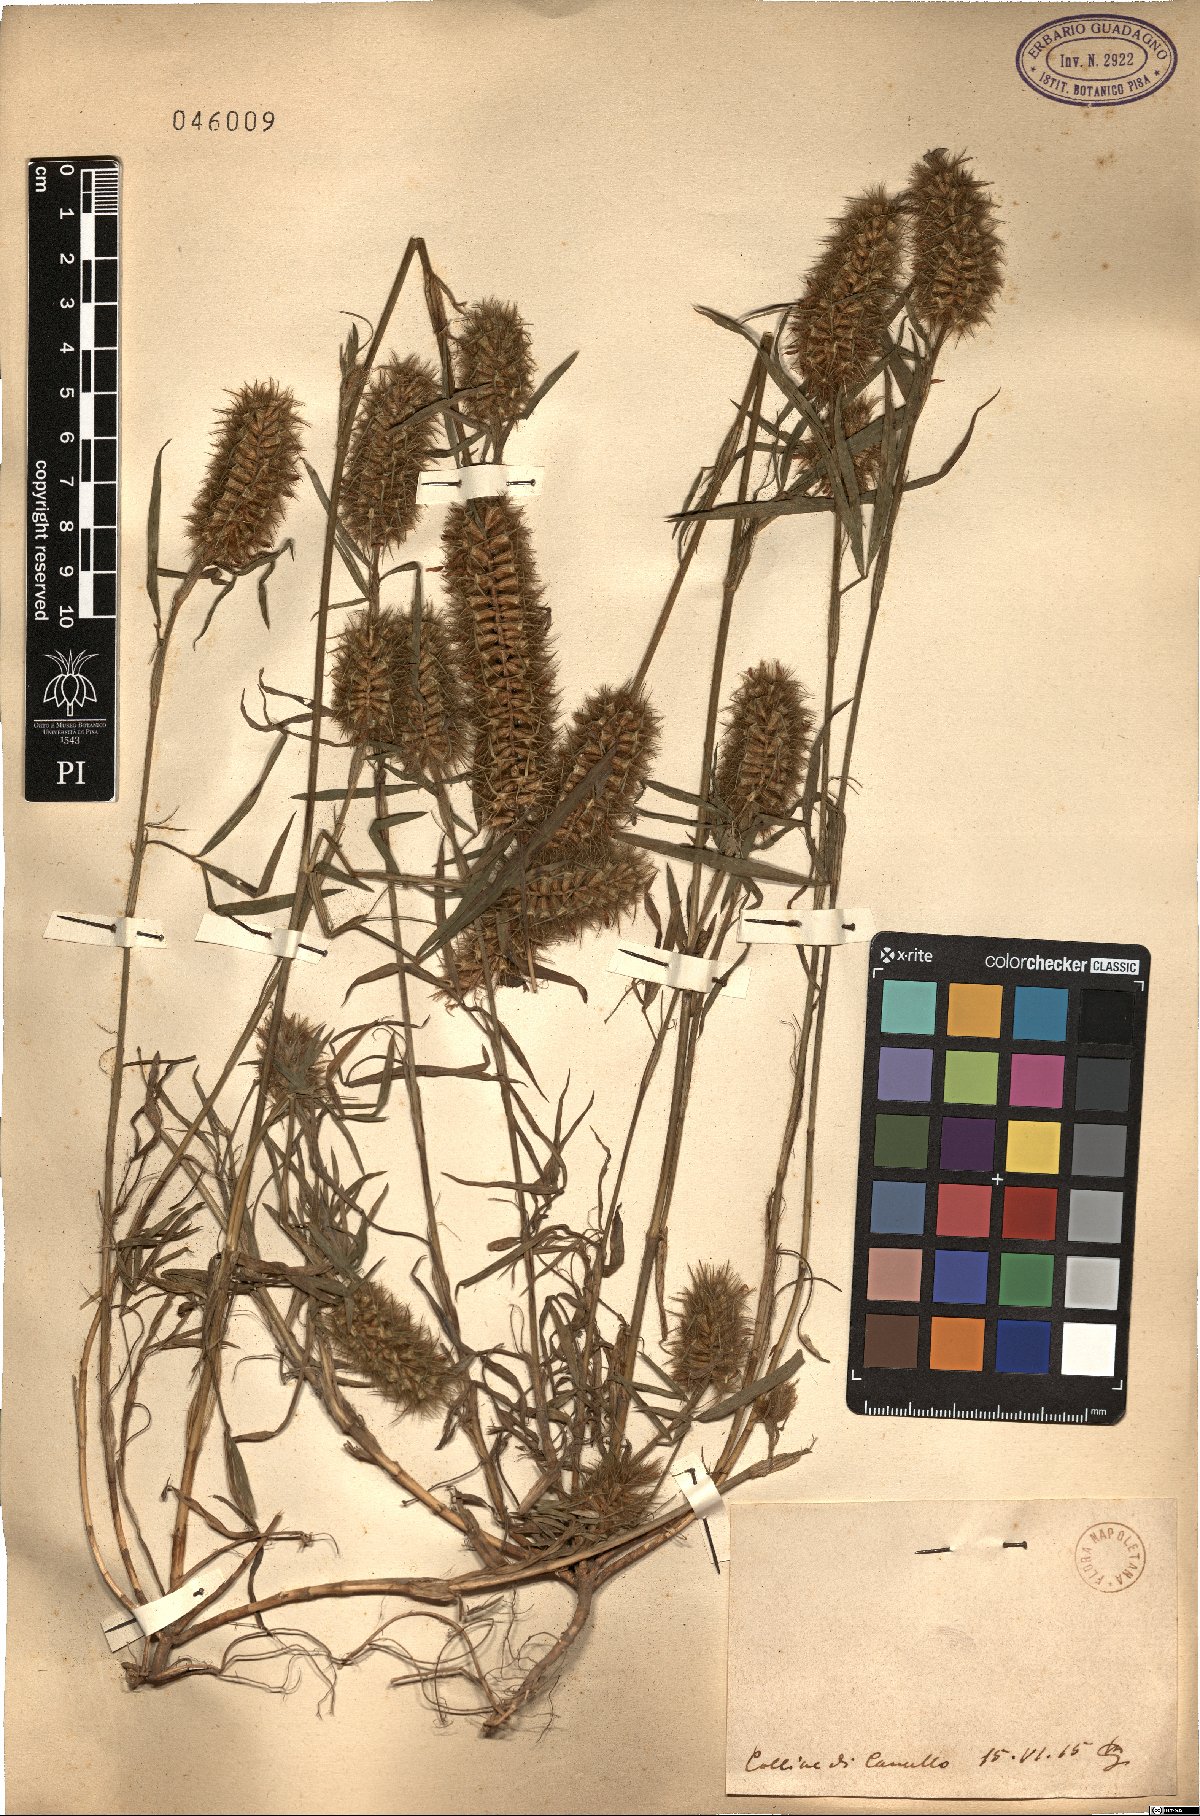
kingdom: Plantae
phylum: Tracheophyta
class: Magnoliopsida
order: Fabales
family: Fabaceae
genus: Trifolium
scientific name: Trifolium
